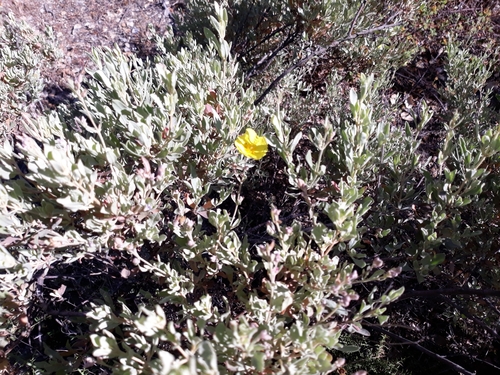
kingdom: Plantae
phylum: Tracheophyta
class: Magnoliopsida
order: Malvales
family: Cistaceae
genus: Halimium
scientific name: Halimium halimifolium
